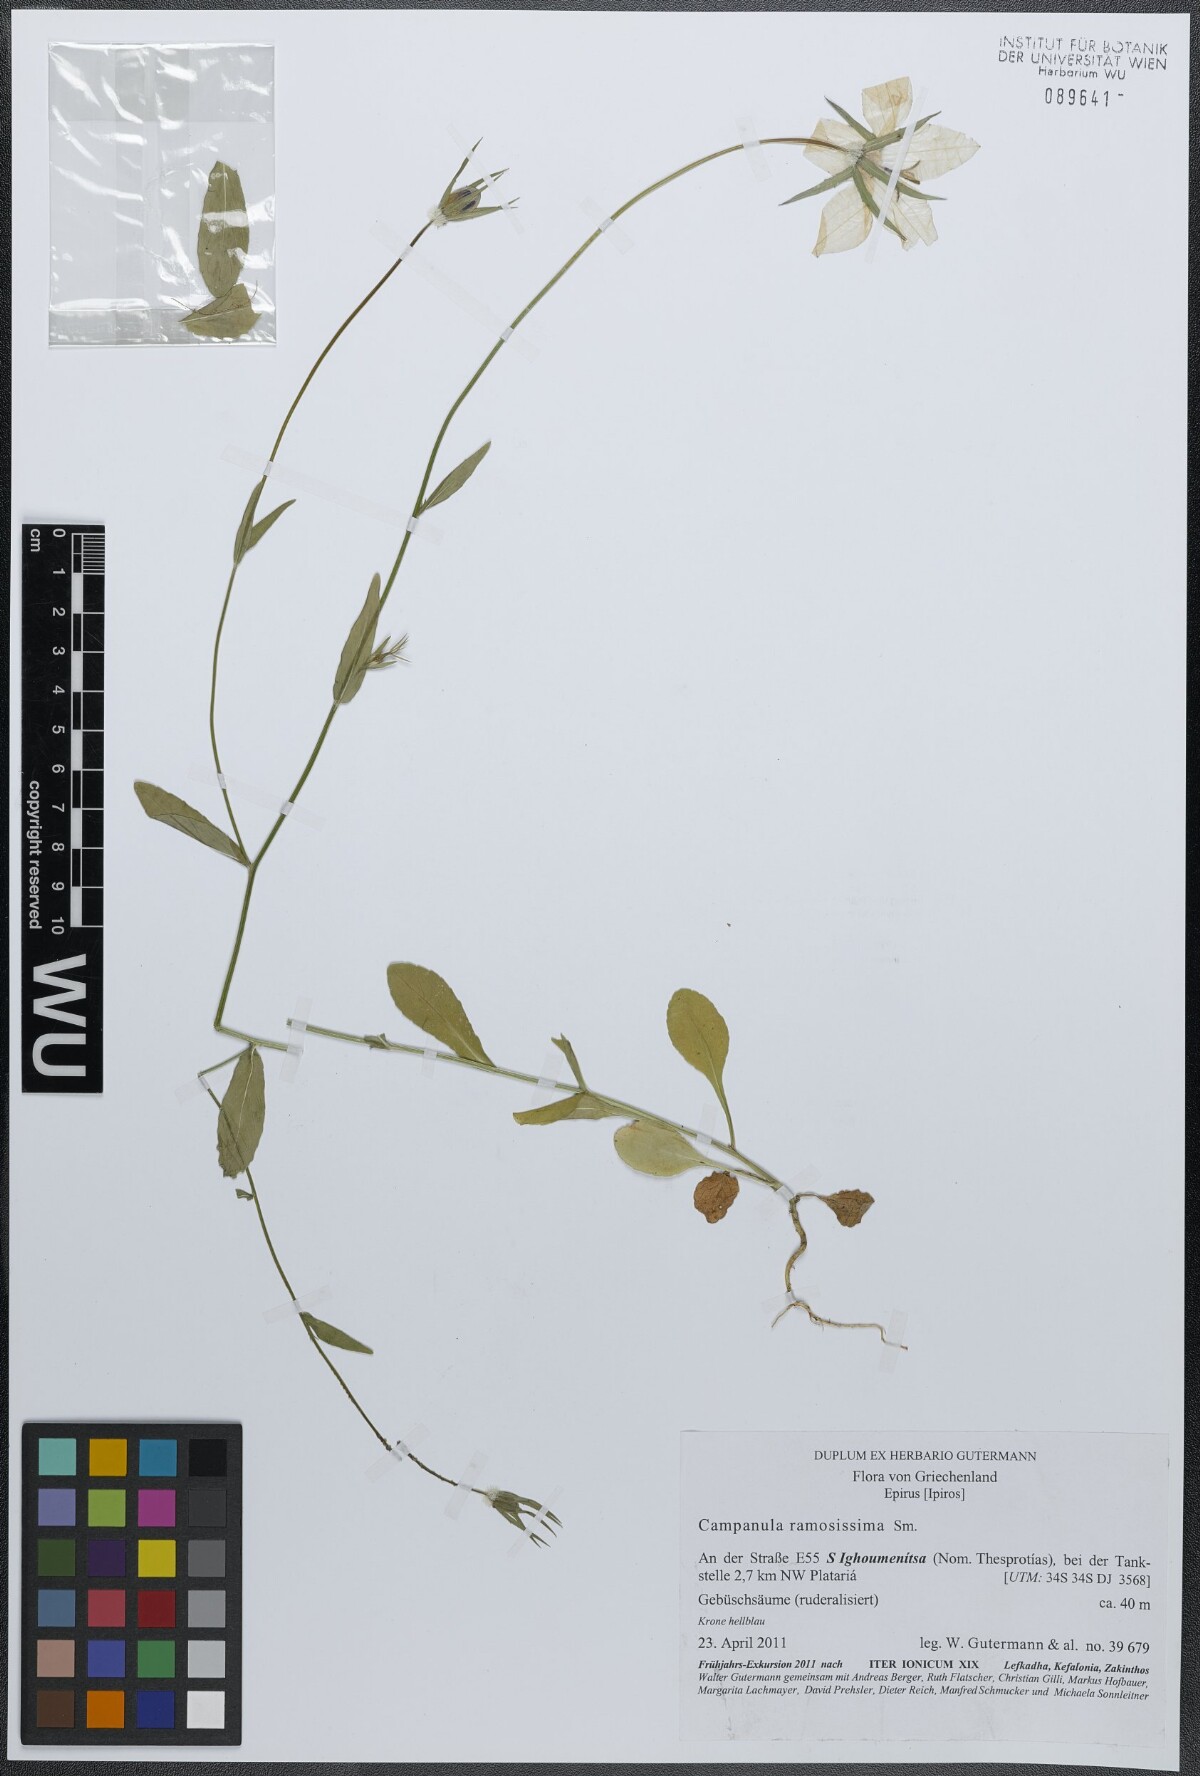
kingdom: Plantae
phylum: Tracheophyta
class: Magnoliopsida
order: Asterales
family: Campanulaceae
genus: Campanula
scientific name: Campanula ramosissima
